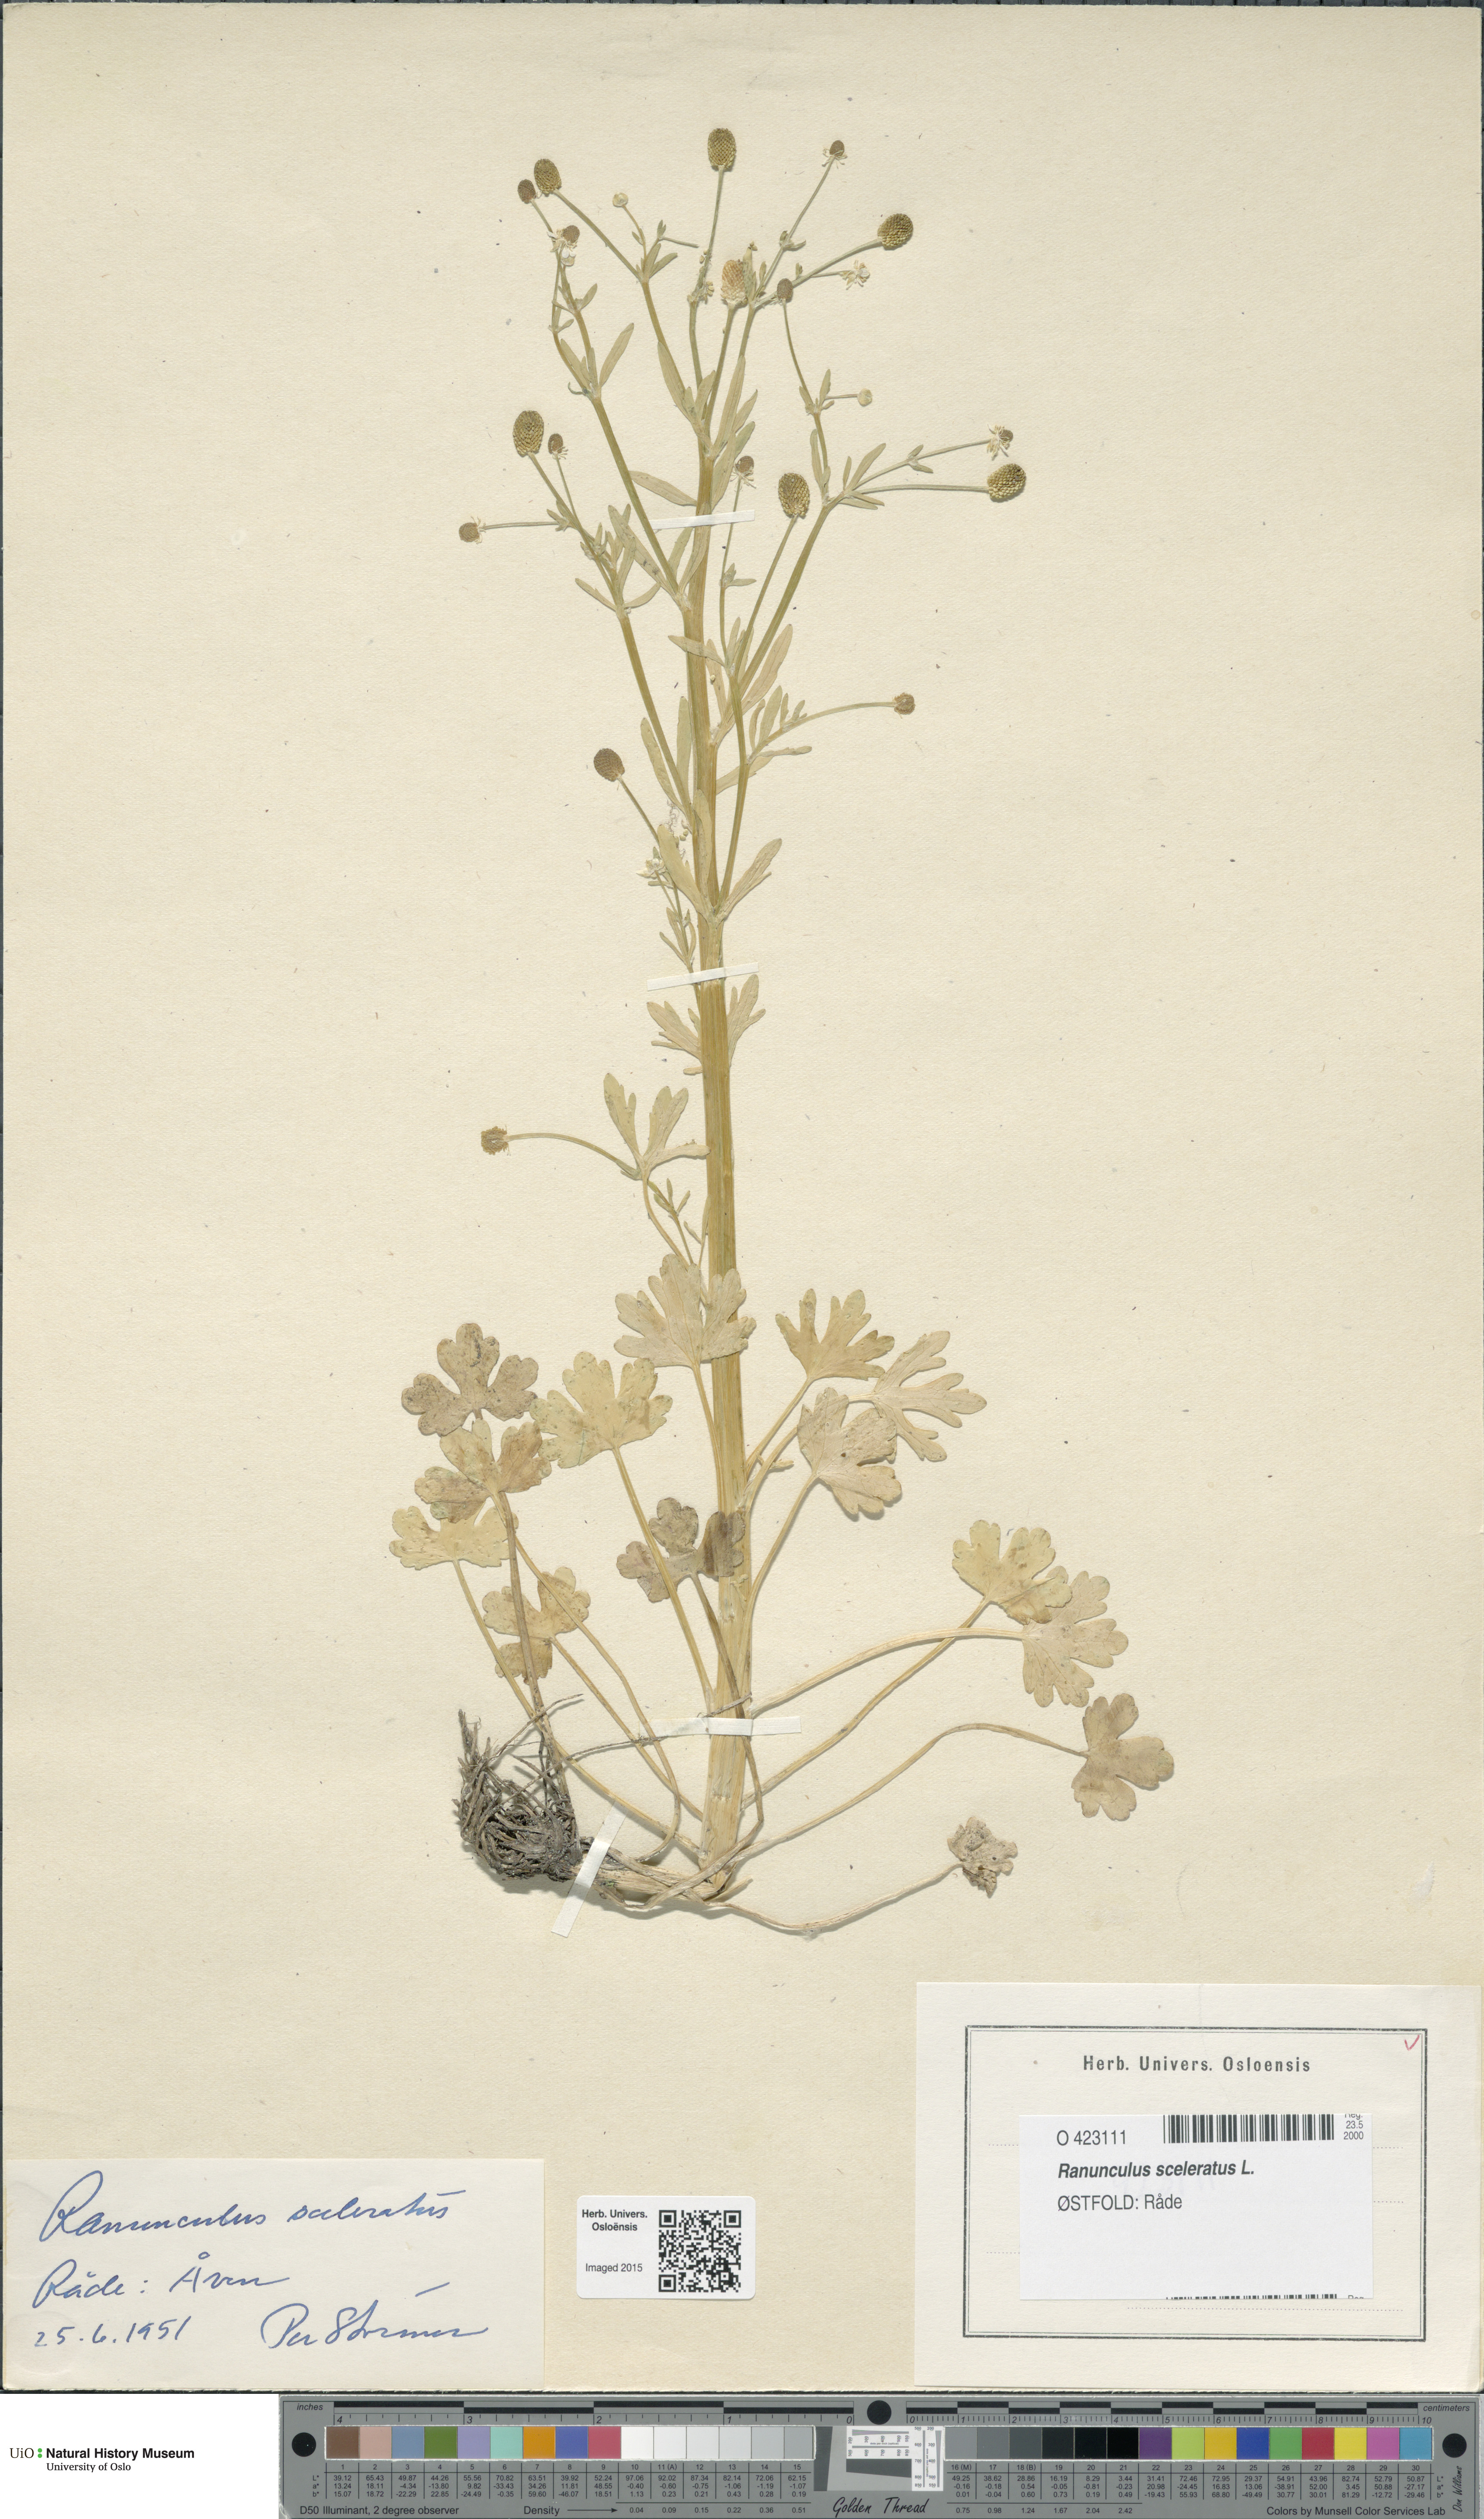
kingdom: Plantae
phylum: Tracheophyta
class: Magnoliopsida
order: Ranunculales
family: Ranunculaceae
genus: Ranunculus
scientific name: Ranunculus sceleratus
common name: Celery-leaved buttercup
